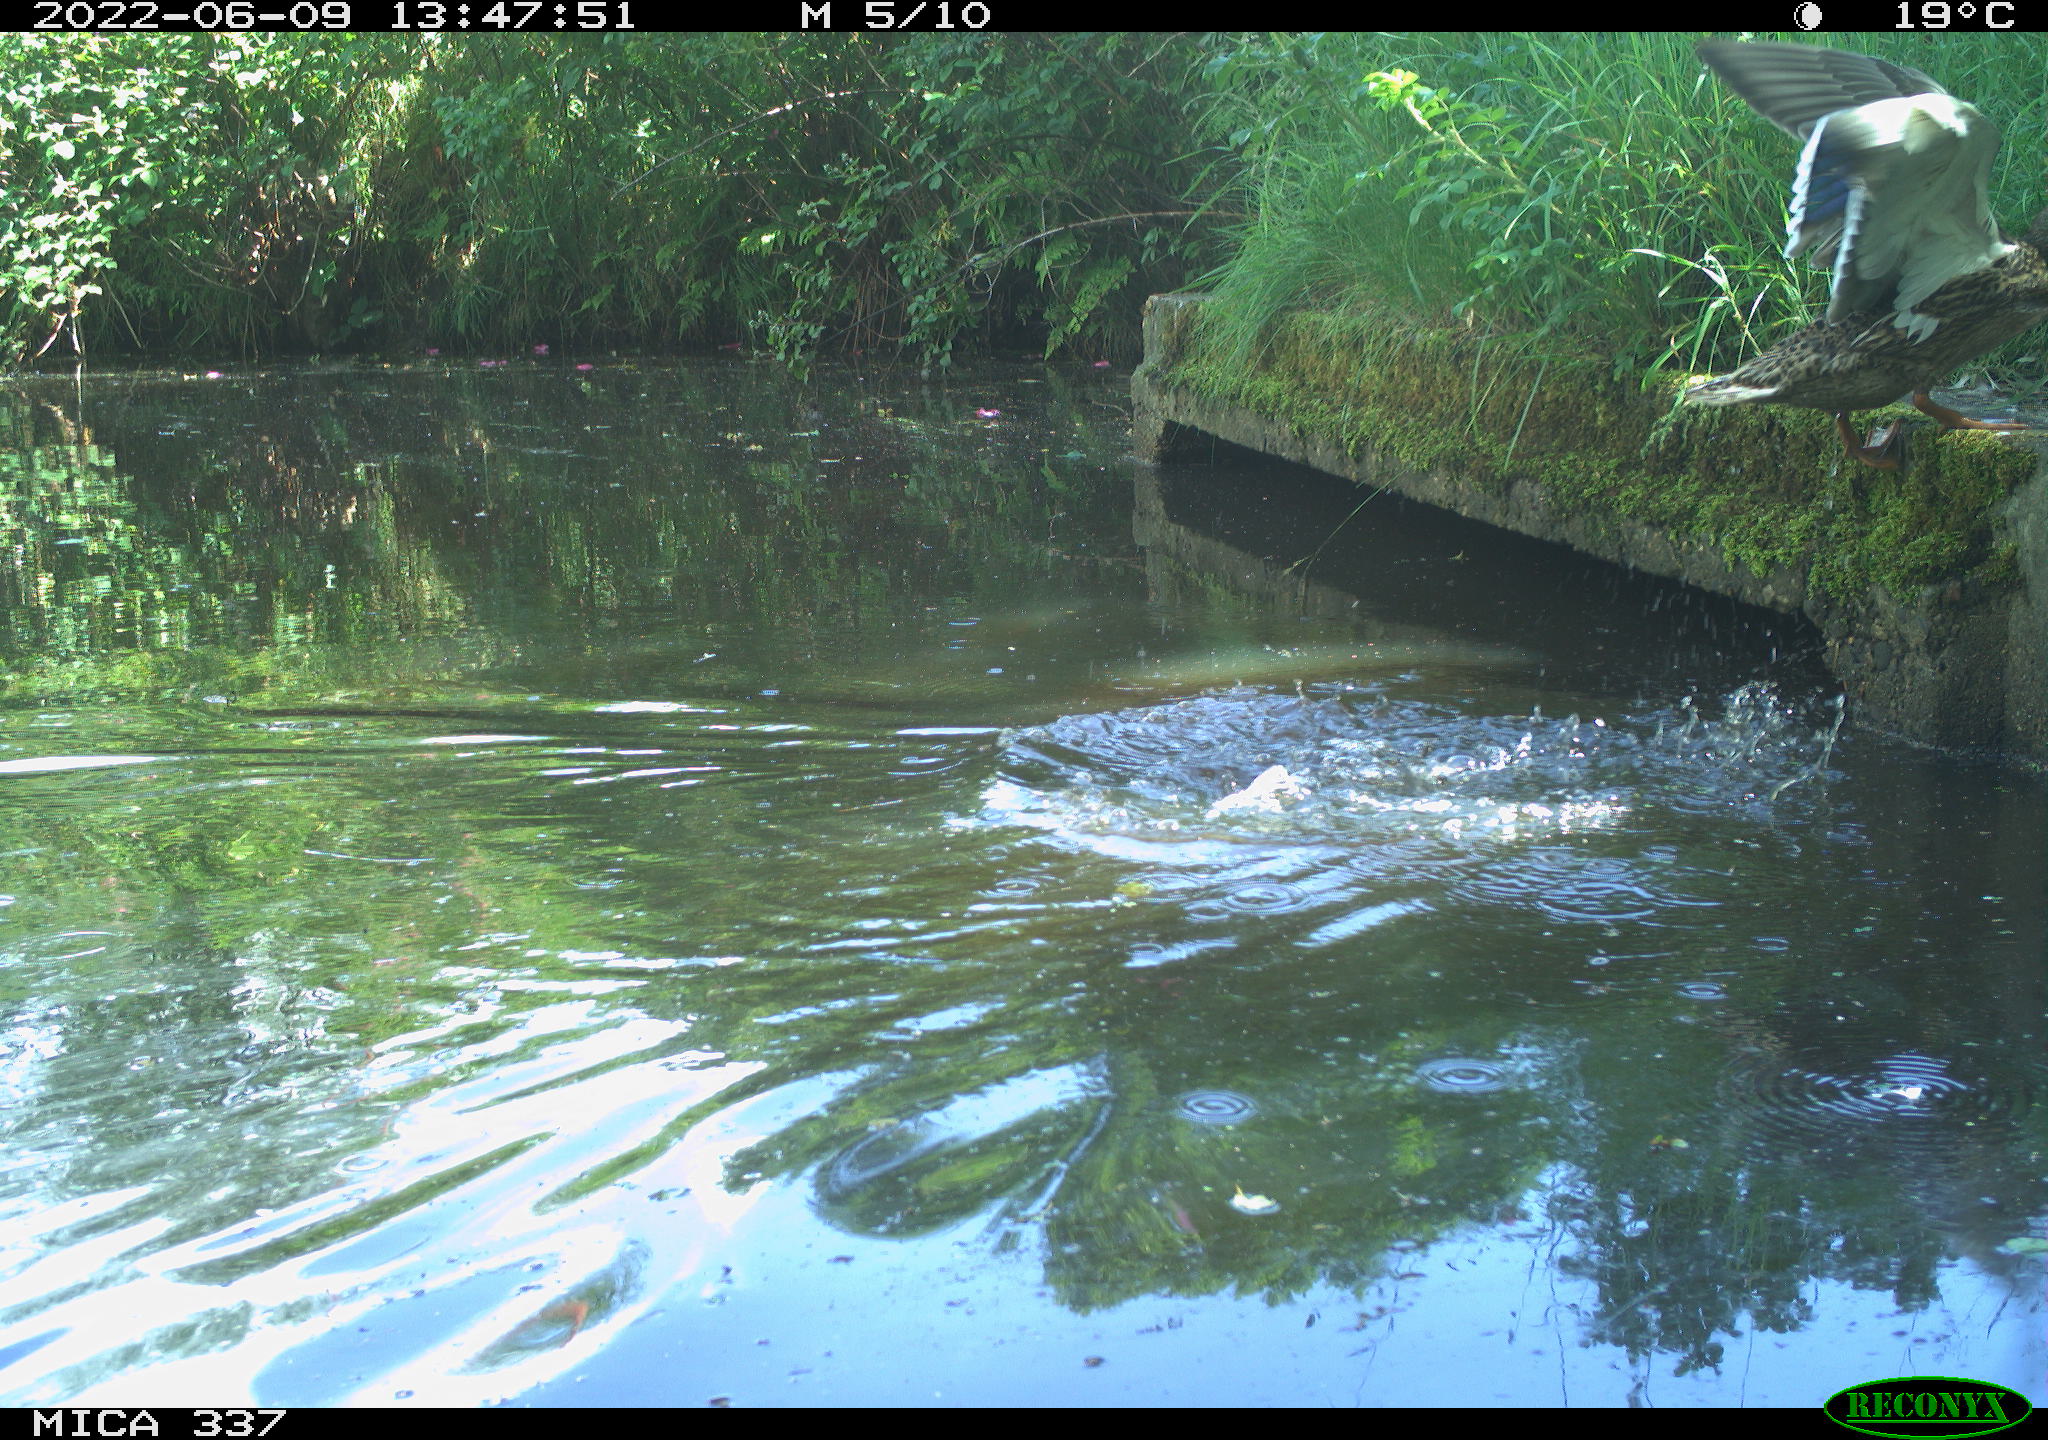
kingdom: Animalia
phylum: Chordata
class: Aves
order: Anseriformes
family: Anatidae
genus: Mareca
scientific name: Mareca strepera
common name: Gadwall
